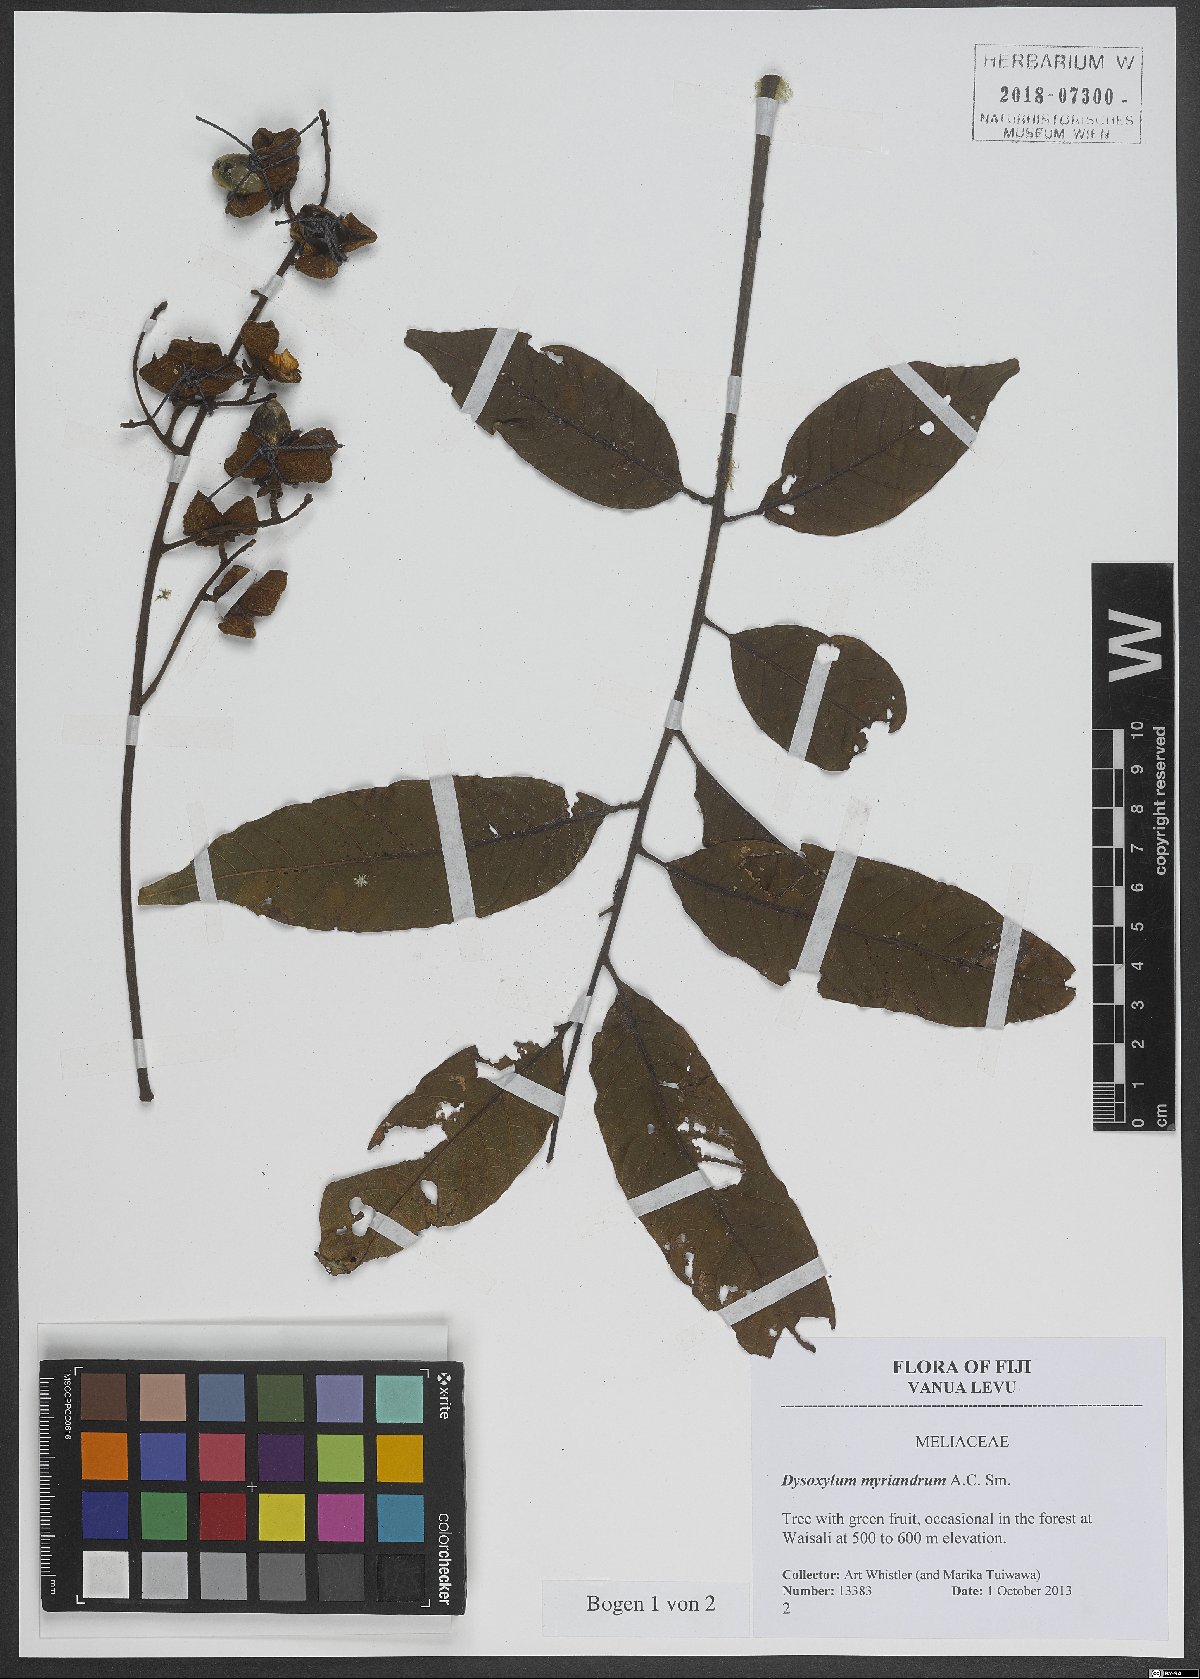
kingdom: Plantae
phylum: Tracheophyta
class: Magnoliopsida
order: Sapindales
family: Meliaceae
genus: Didymocheton
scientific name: Didymocheton myriandrus
